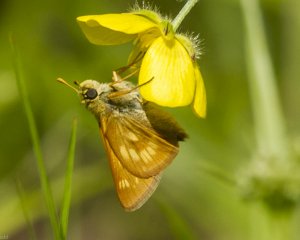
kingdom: Animalia
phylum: Arthropoda
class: Insecta
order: Lepidoptera
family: Hesperiidae
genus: Polites
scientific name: Polites
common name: Long Dash Skipper
